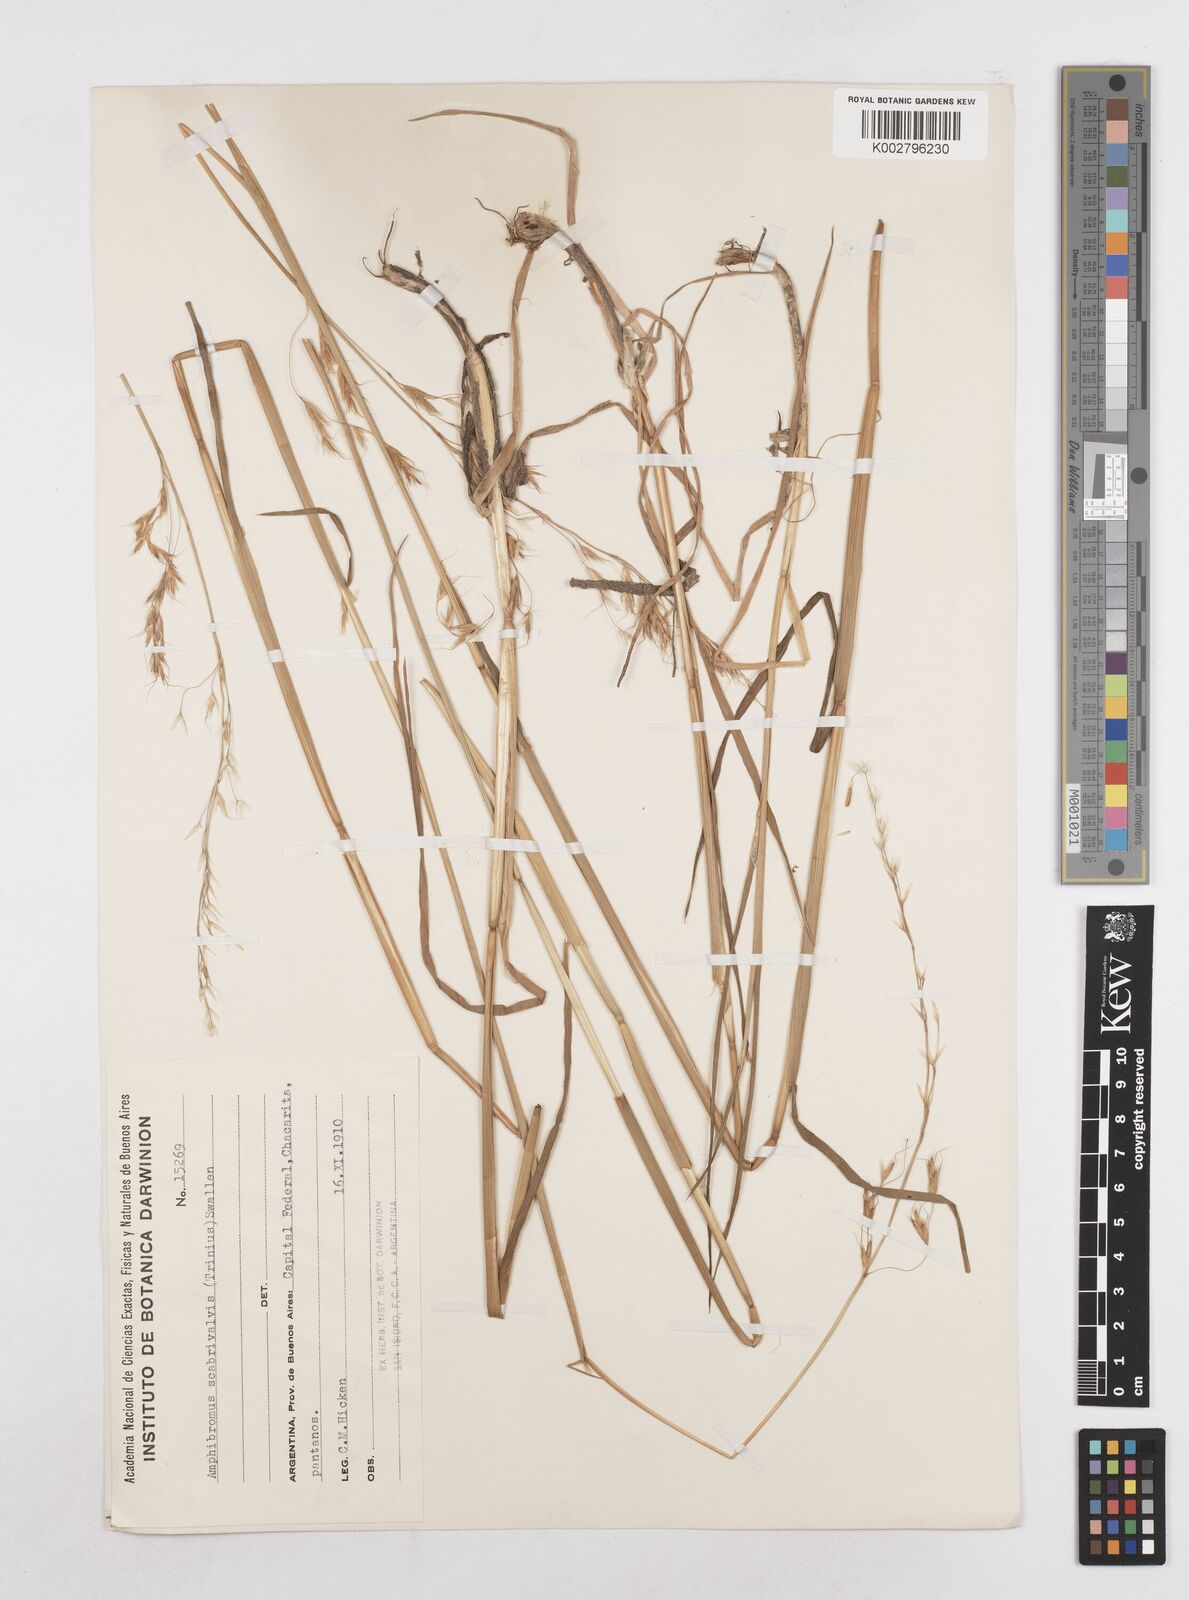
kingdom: Plantae
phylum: Tracheophyta
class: Liliopsida
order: Poales
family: Poaceae
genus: Helictotrichon
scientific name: Helictotrichon
